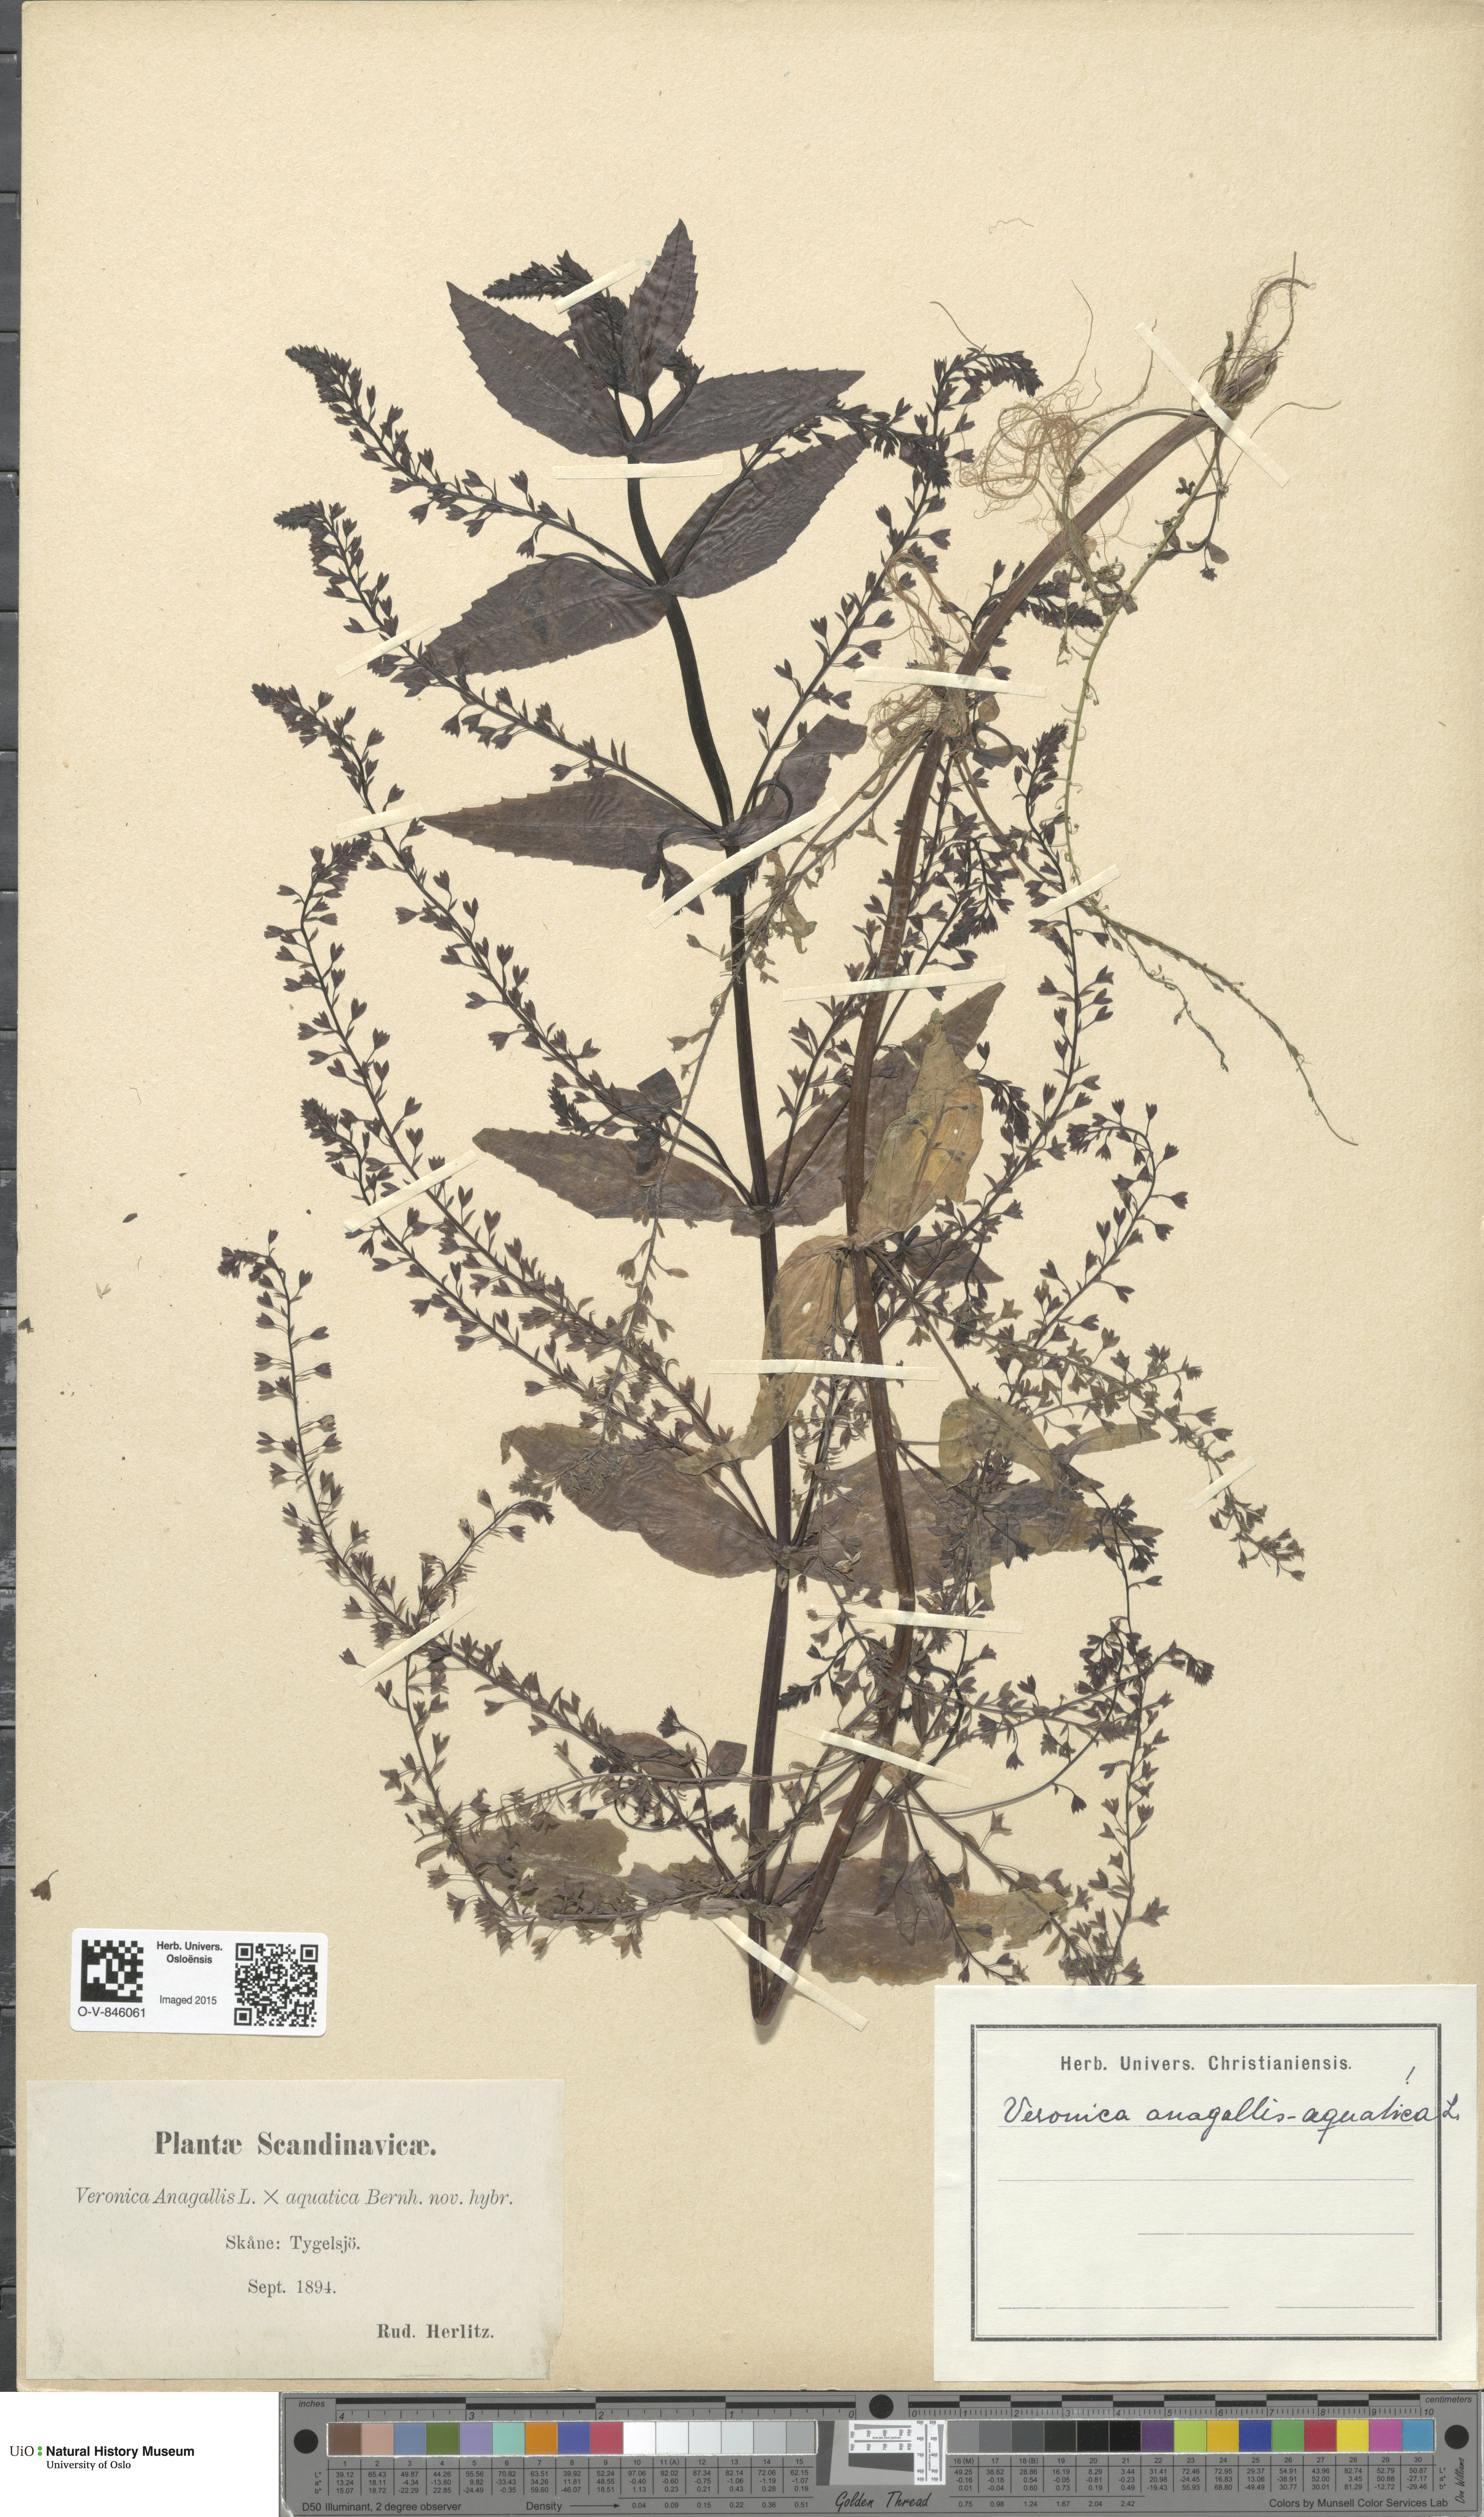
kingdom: Plantae
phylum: Tracheophyta
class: Magnoliopsida
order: Lamiales
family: Plantaginaceae
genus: Veronica
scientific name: Veronica anagallis-aquatica
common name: Water speedwell
